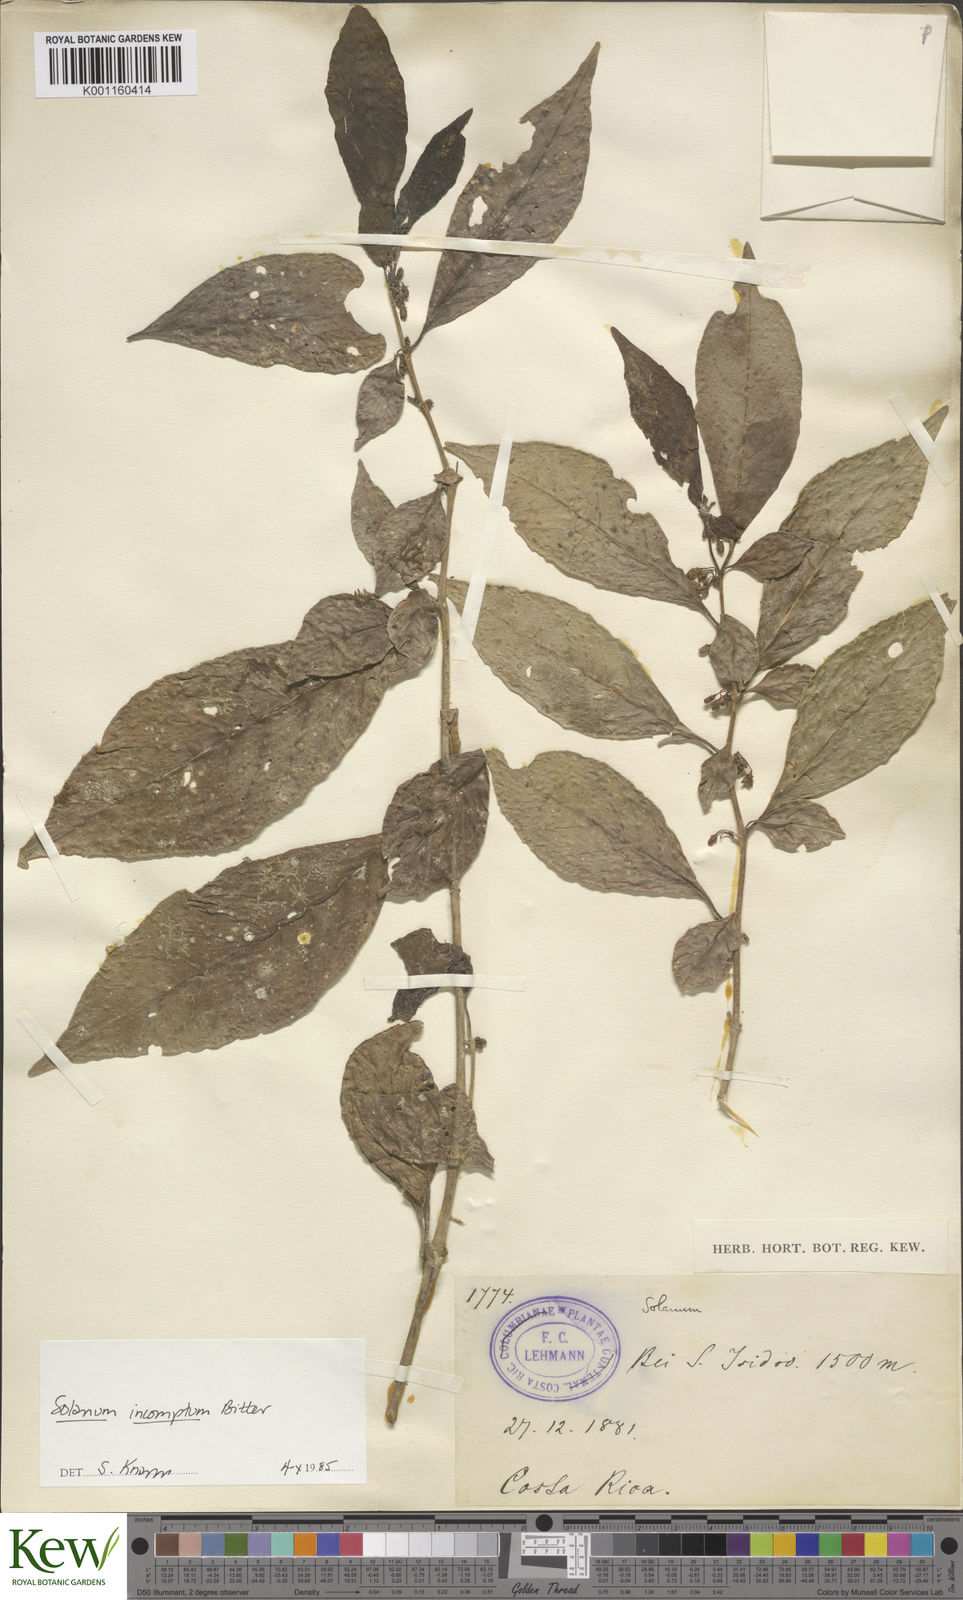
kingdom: Plantae
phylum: Tracheophyta
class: Magnoliopsida
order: Solanales
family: Solanaceae
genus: Solanum
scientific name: Solanum incomptum
